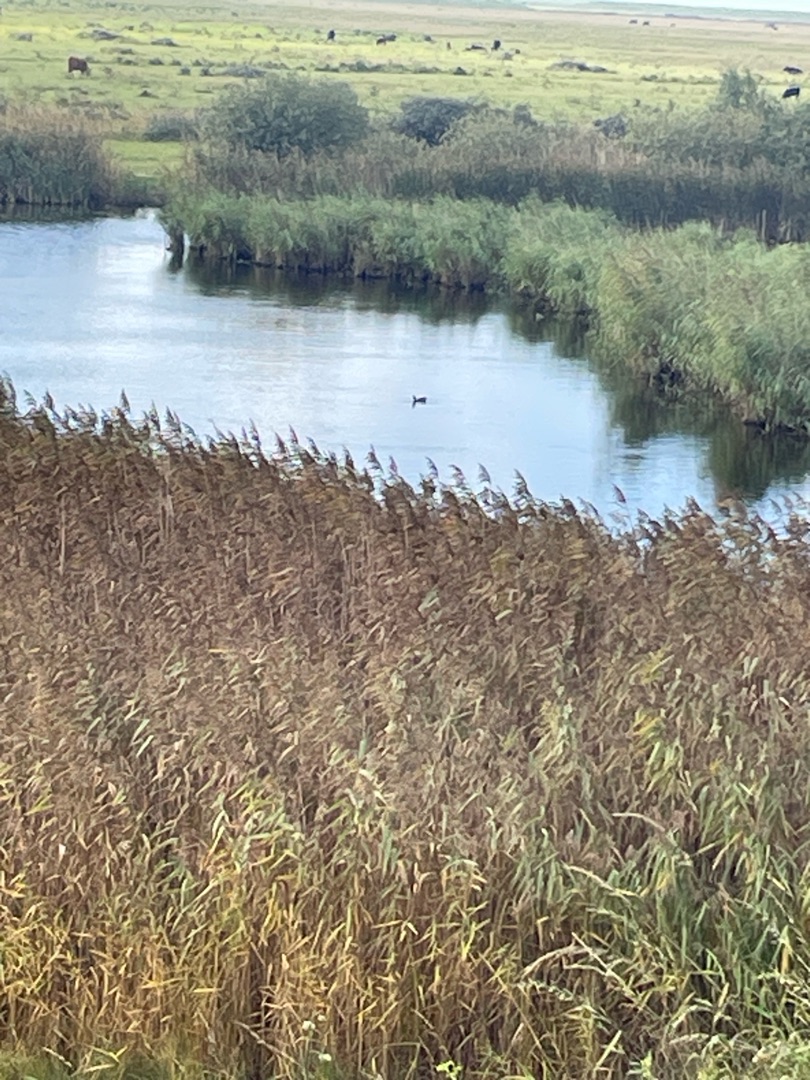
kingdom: Animalia
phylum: Chordata
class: Aves
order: Gruiformes
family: Rallidae
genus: Fulica
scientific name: Fulica atra
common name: Blishøne
